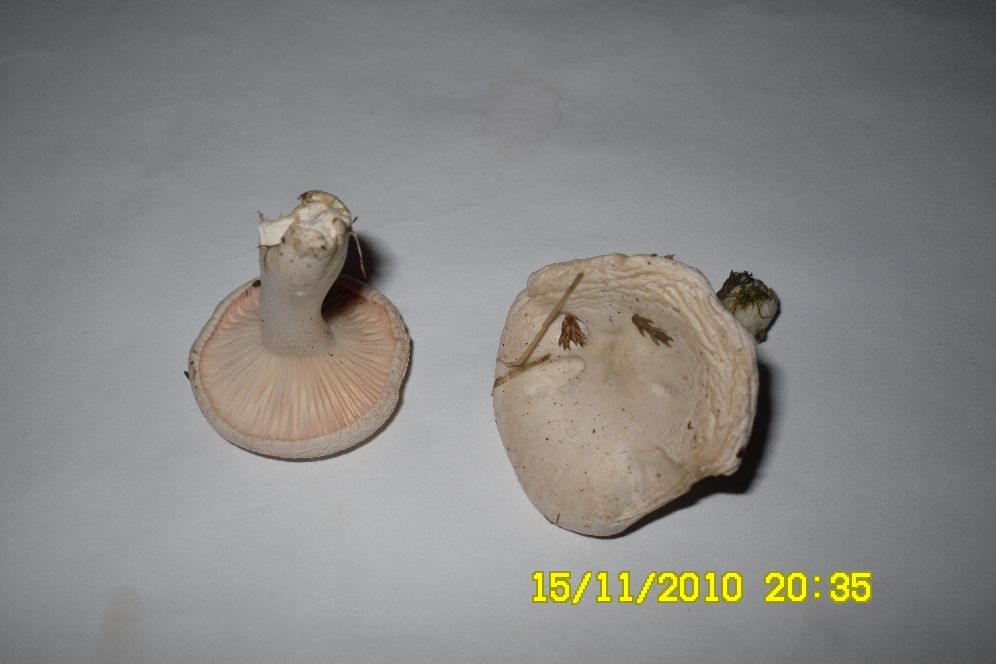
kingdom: Fungi
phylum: Basidiomycota
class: Agaricomycetes
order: Agaricales
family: Entolomataceae
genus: Clitopilus
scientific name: Clitopilus prunulus
